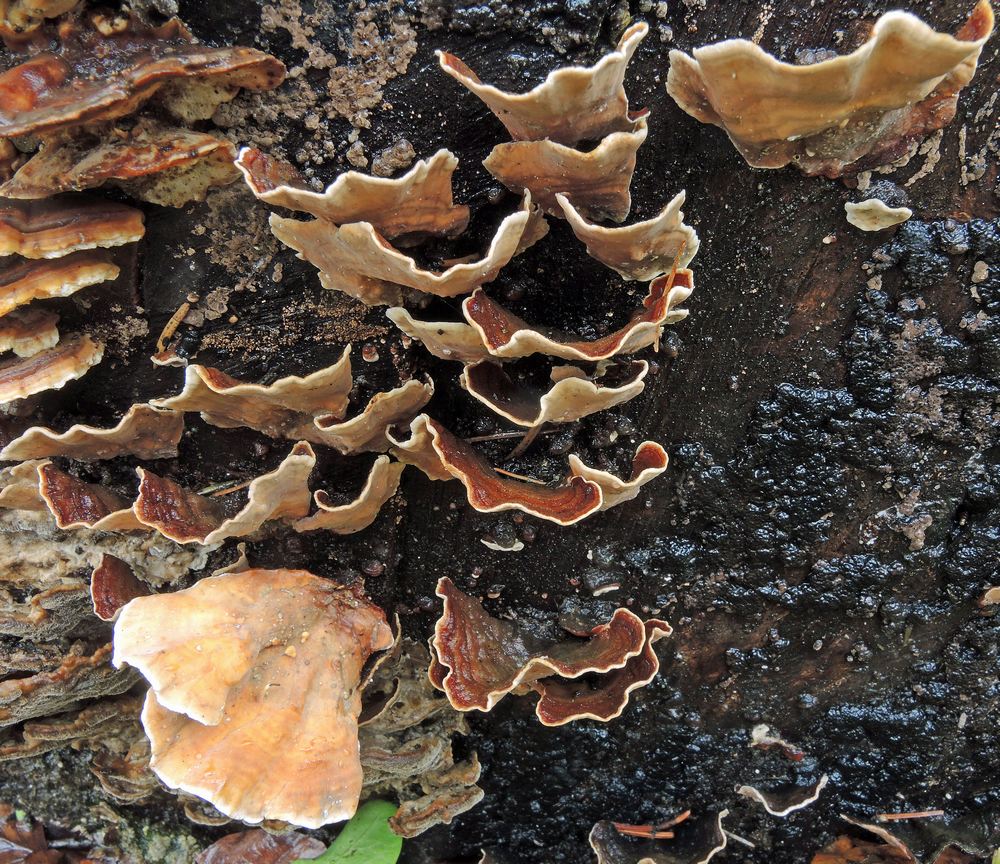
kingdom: Fungi
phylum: Basidiomycota
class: Agaricomycetes
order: Russulales
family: Stereaceae
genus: Stereum
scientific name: Stereum subtomentosum
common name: smuk lædersvamp
